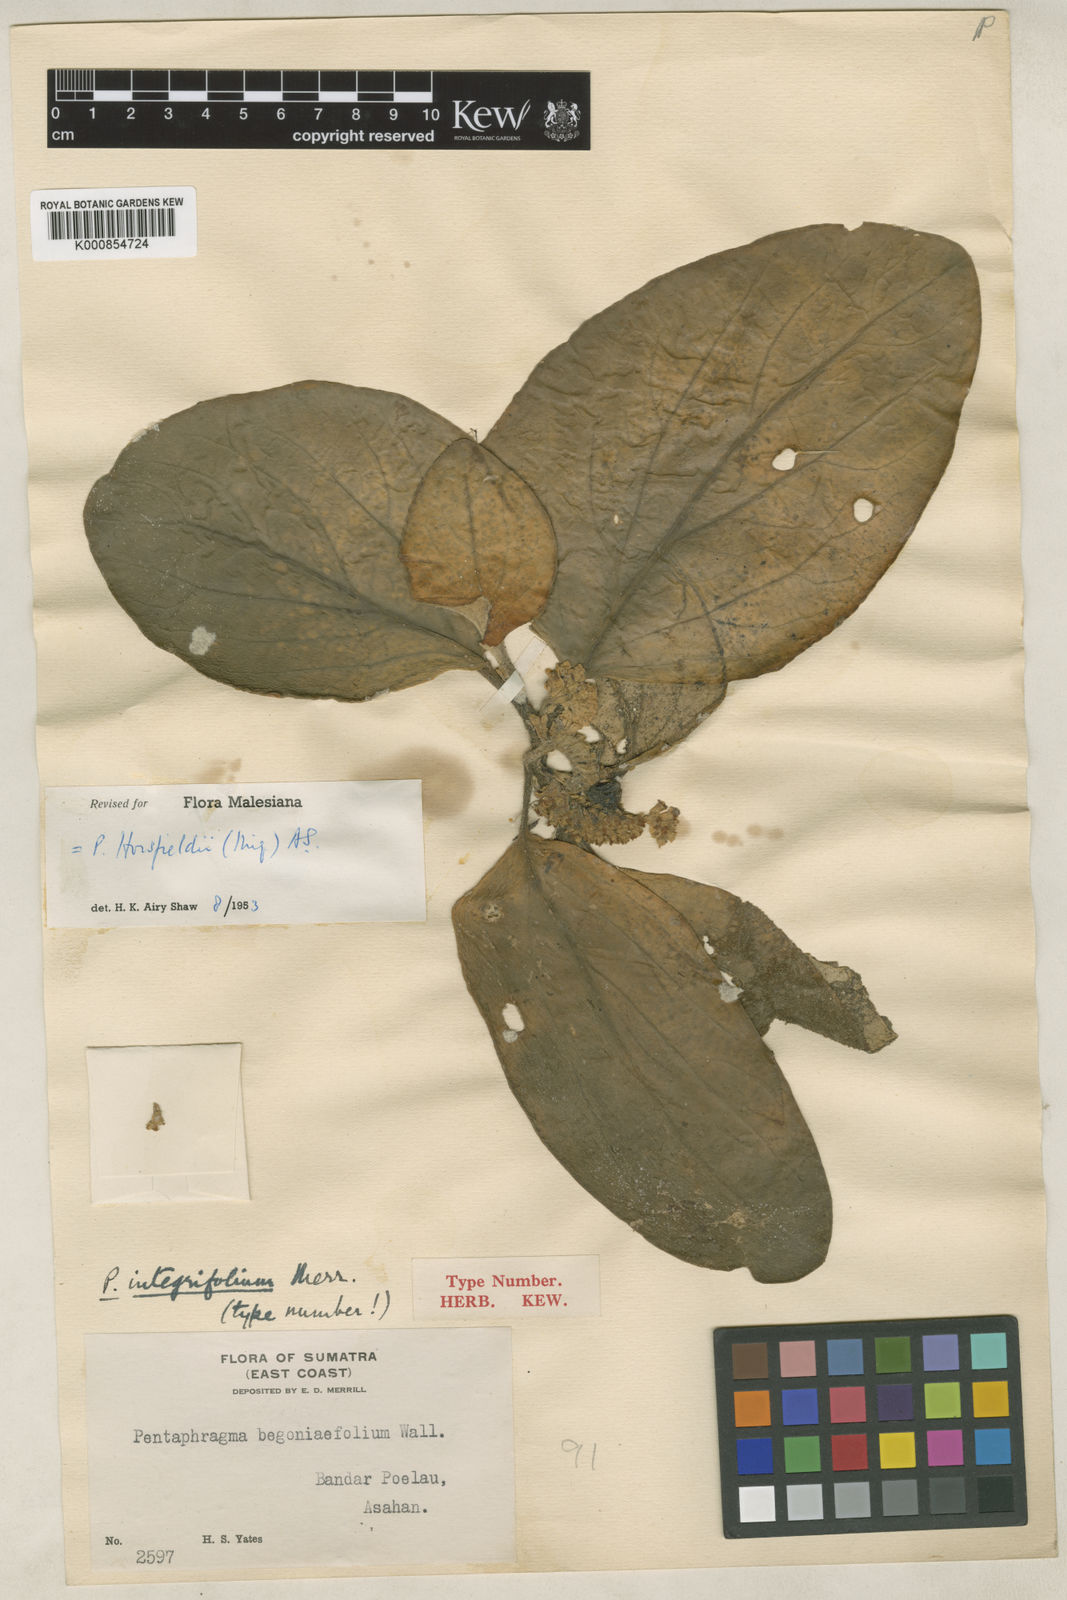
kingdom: Plantae
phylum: Tracheophyta
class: Magnoliopsida
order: Asterales
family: Pentaphragmataceae
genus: Pentaphragma
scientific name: Pentaphragma horsfieldii
